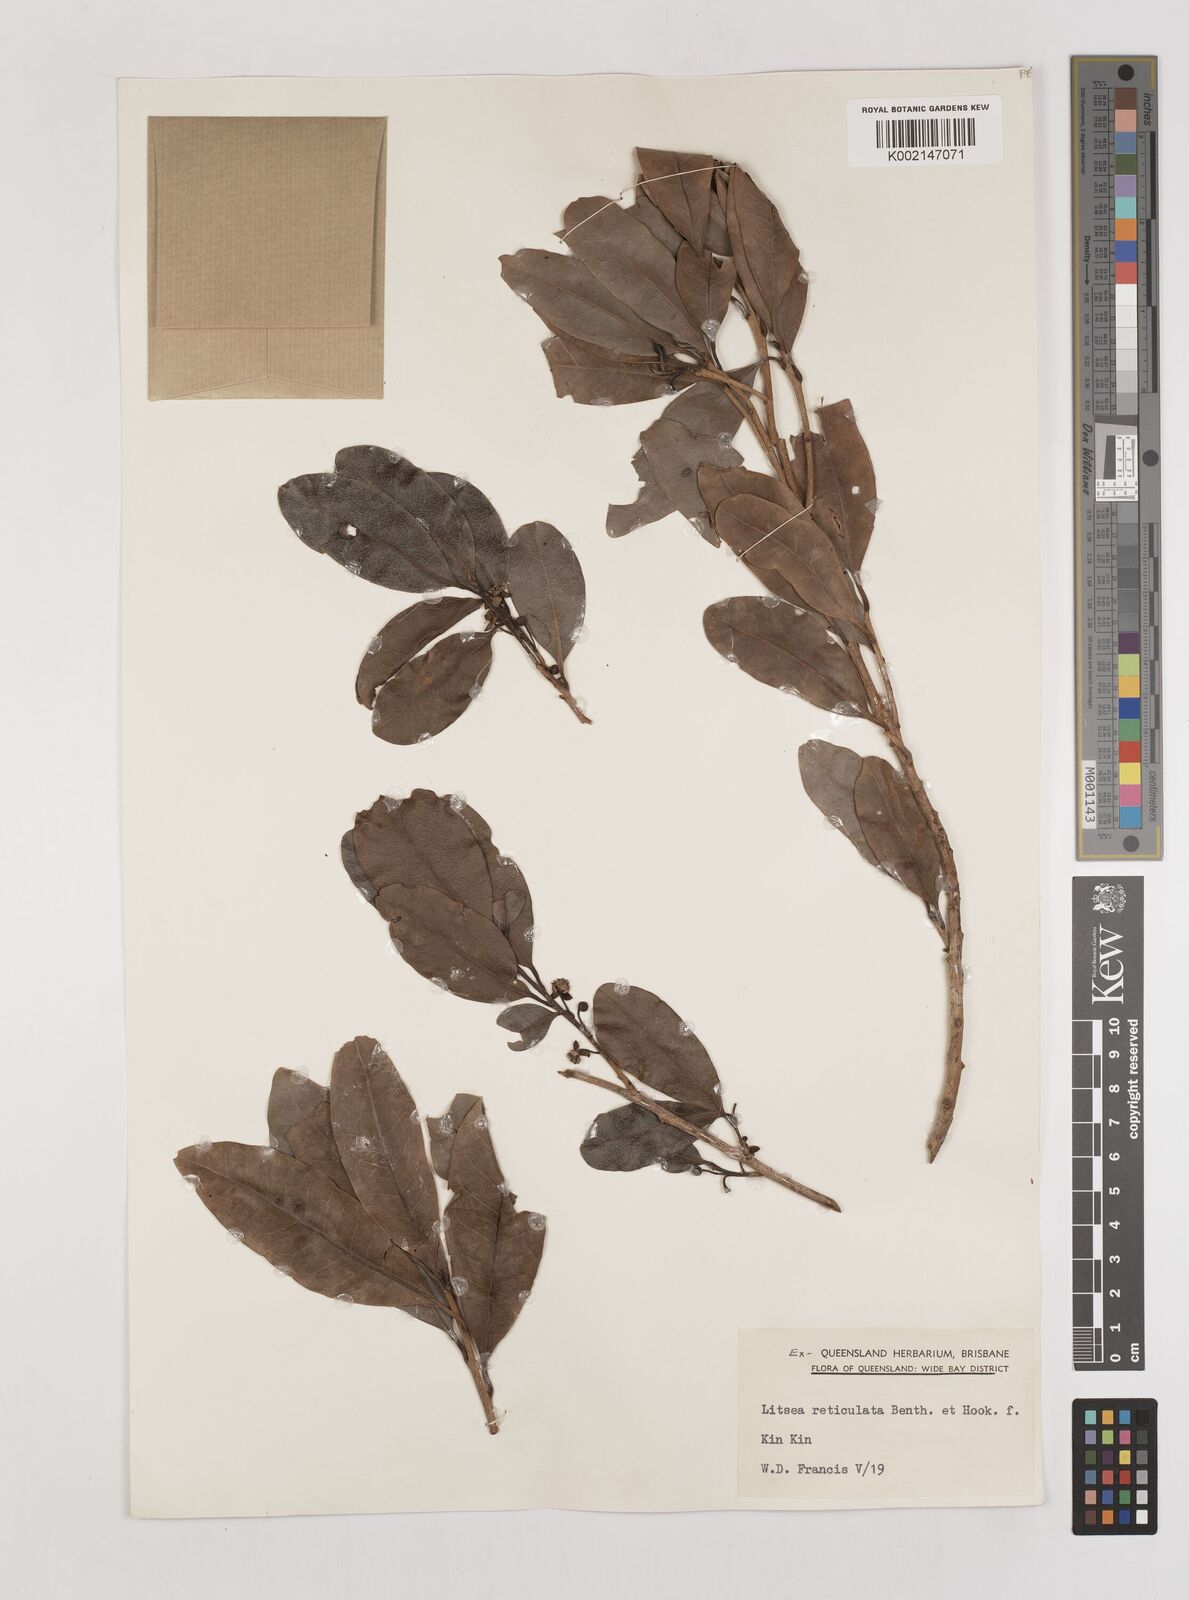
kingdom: Plantae
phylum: Tracheophyta
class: Magnoliopsida
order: Laurales
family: Lauraceae
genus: Litsea
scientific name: Litsea reticulata
